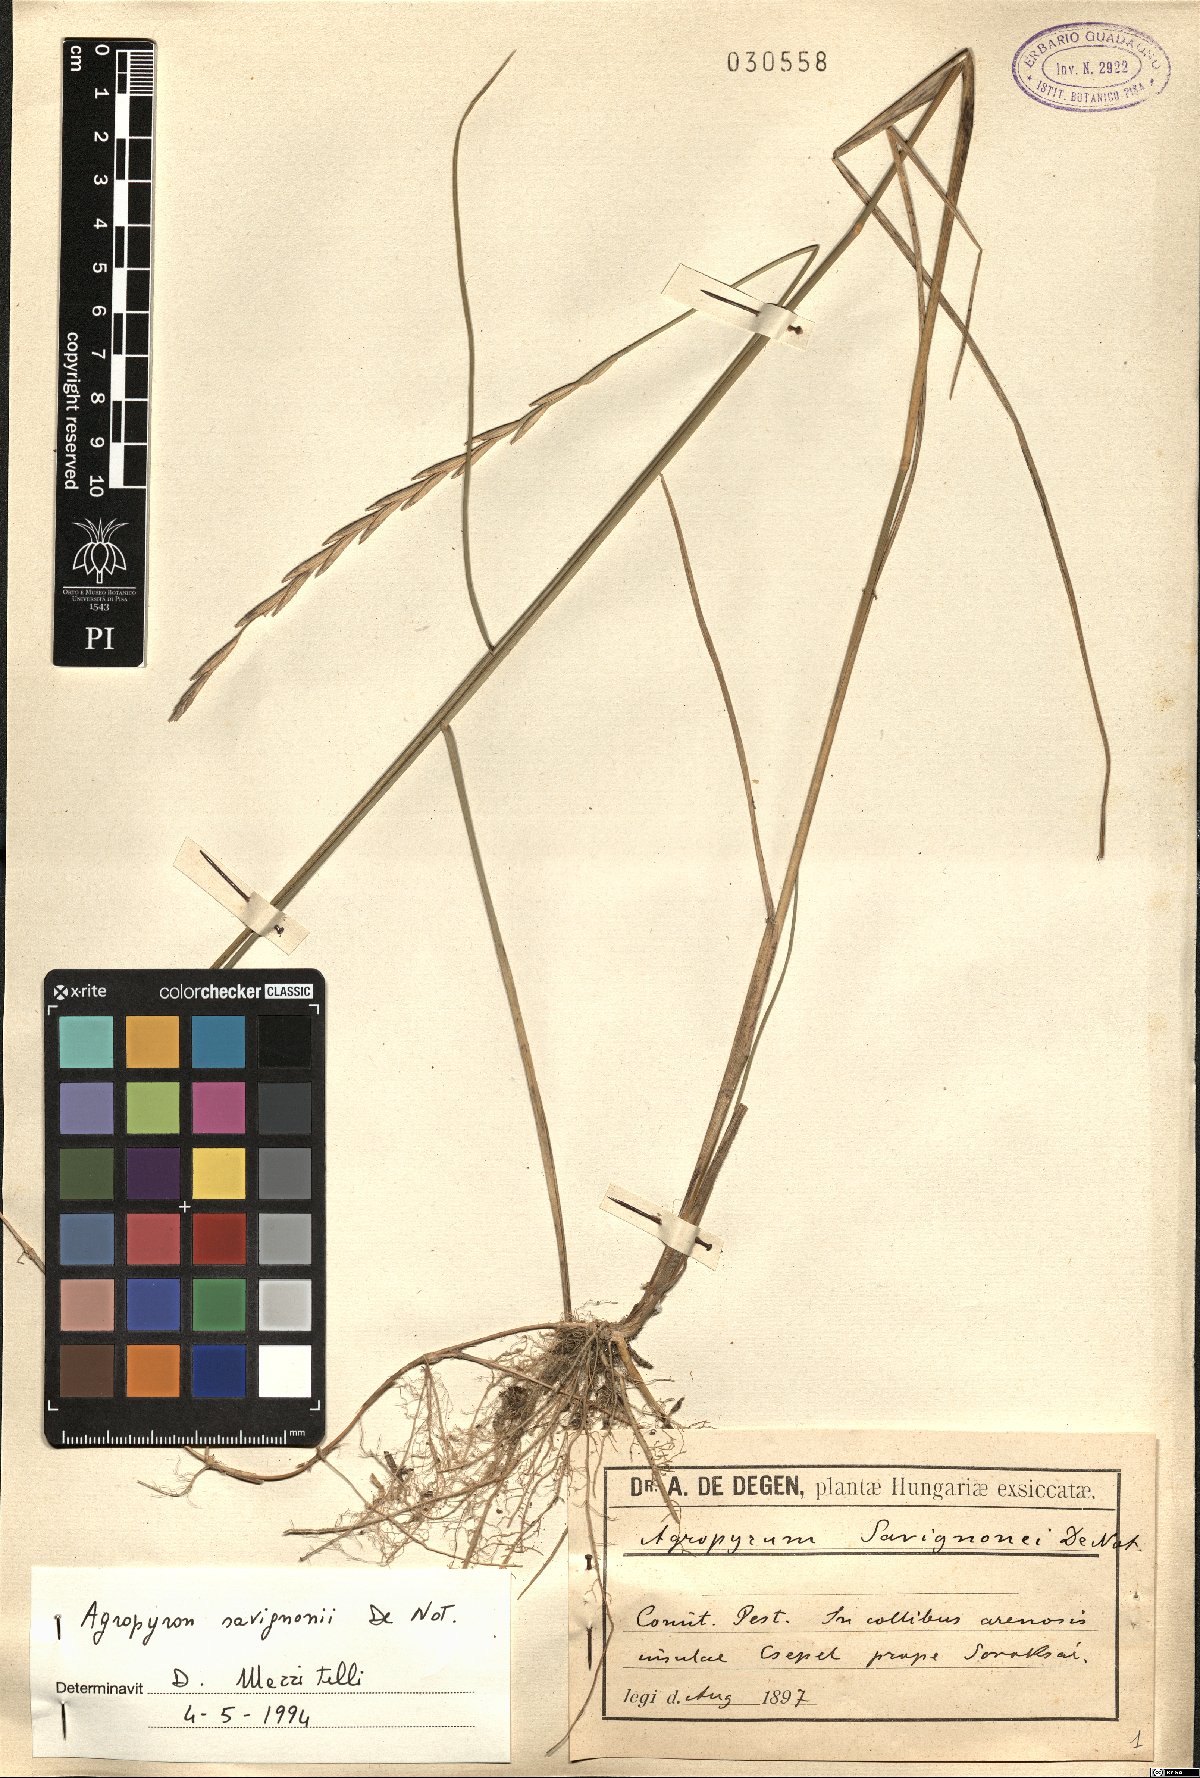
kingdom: Plantae
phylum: Tracheophyta
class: Liliopsida
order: Poales
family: Poaceae
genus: Thinopyrum
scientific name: Thinopyrum intermedium
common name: Intermediate wheatgrass
